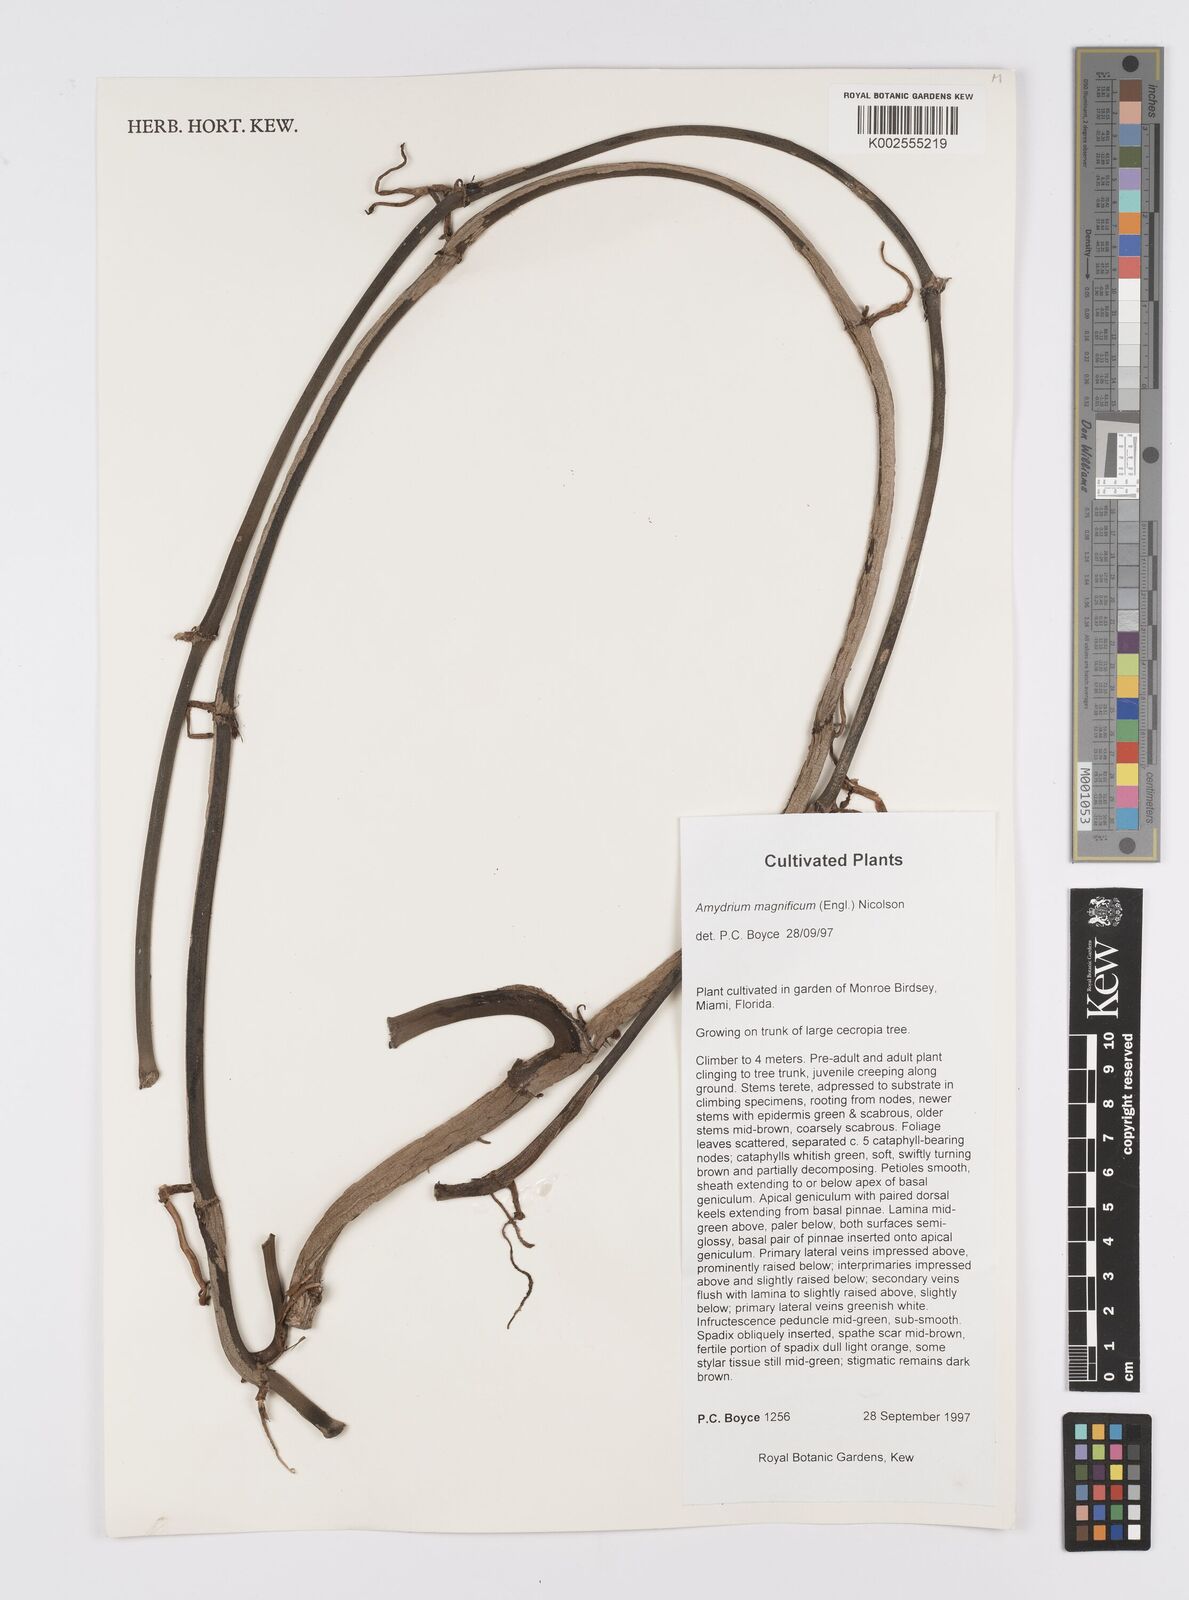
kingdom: Plantae
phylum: Tracheophyta
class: Liliopsida
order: Alismatales
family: Araceae
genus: Amydrium
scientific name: Amydrium zippelianum
